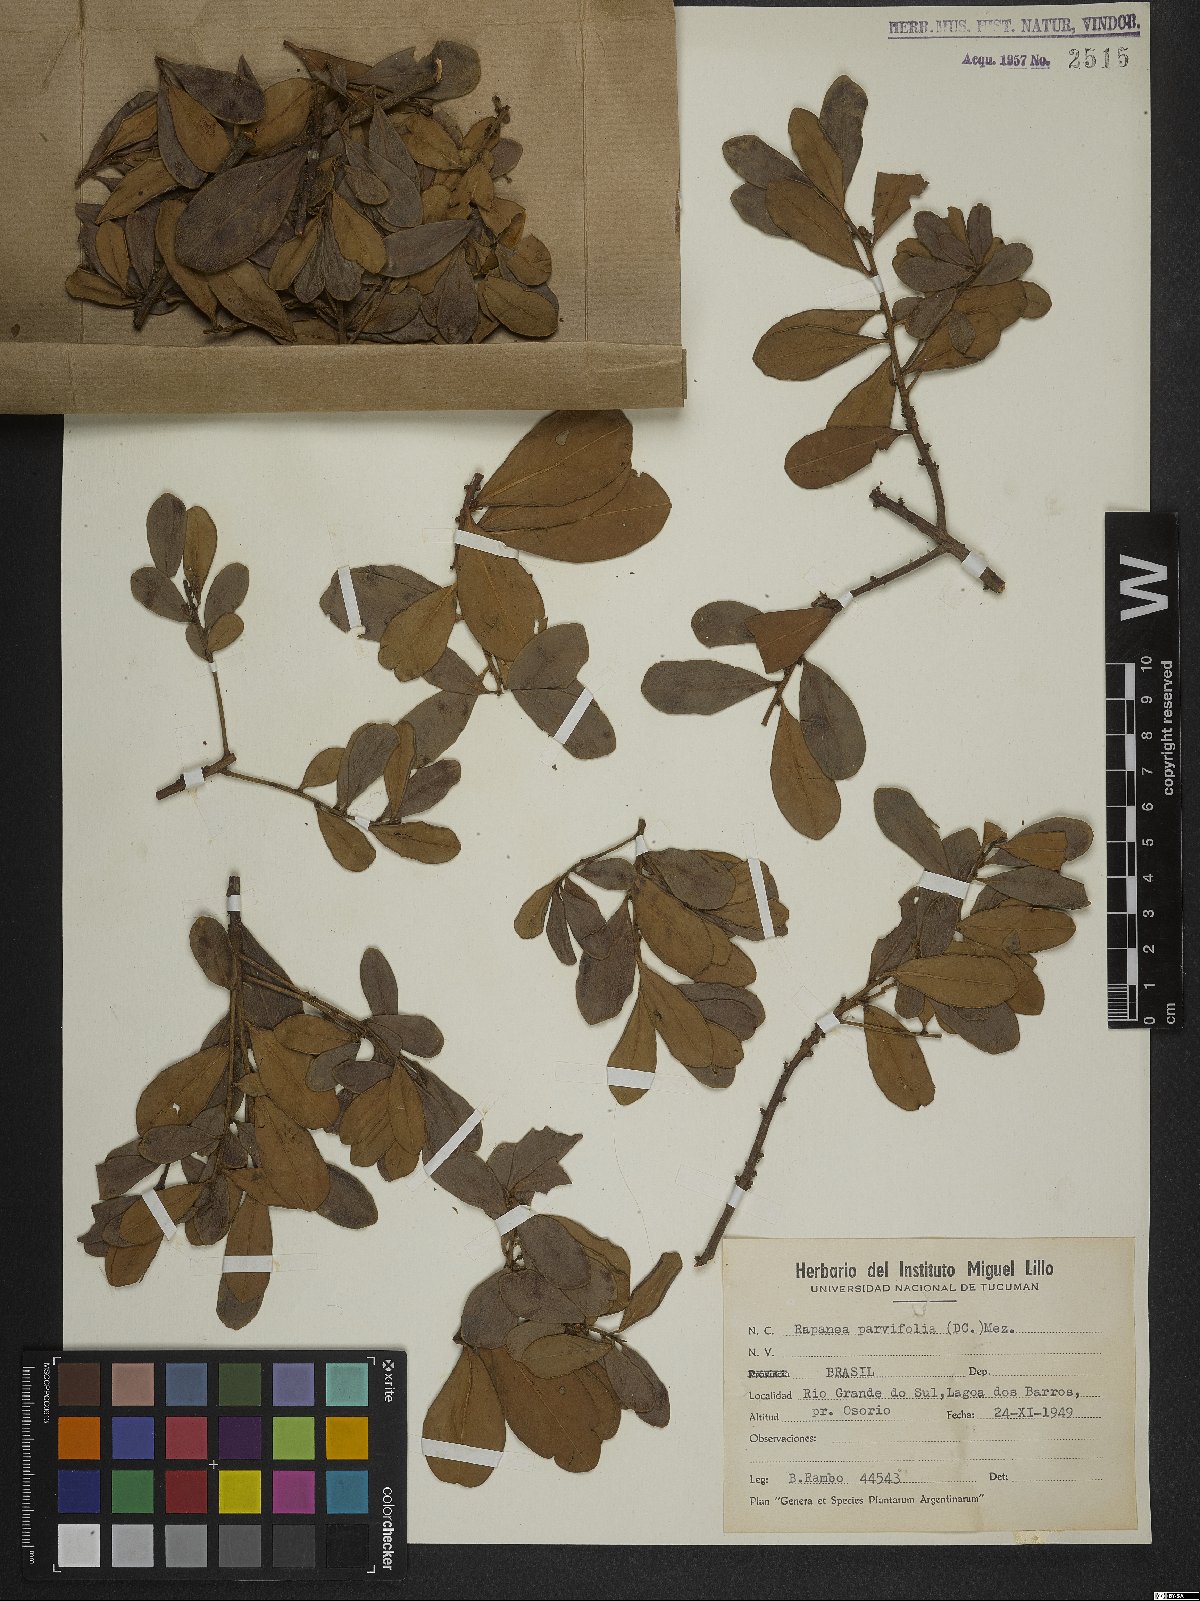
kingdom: Plantae
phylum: Tracheophyta
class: Magnoliopsida
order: Ericales
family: Primulaceae
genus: Myrsine
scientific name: Myrsine parvifolia
